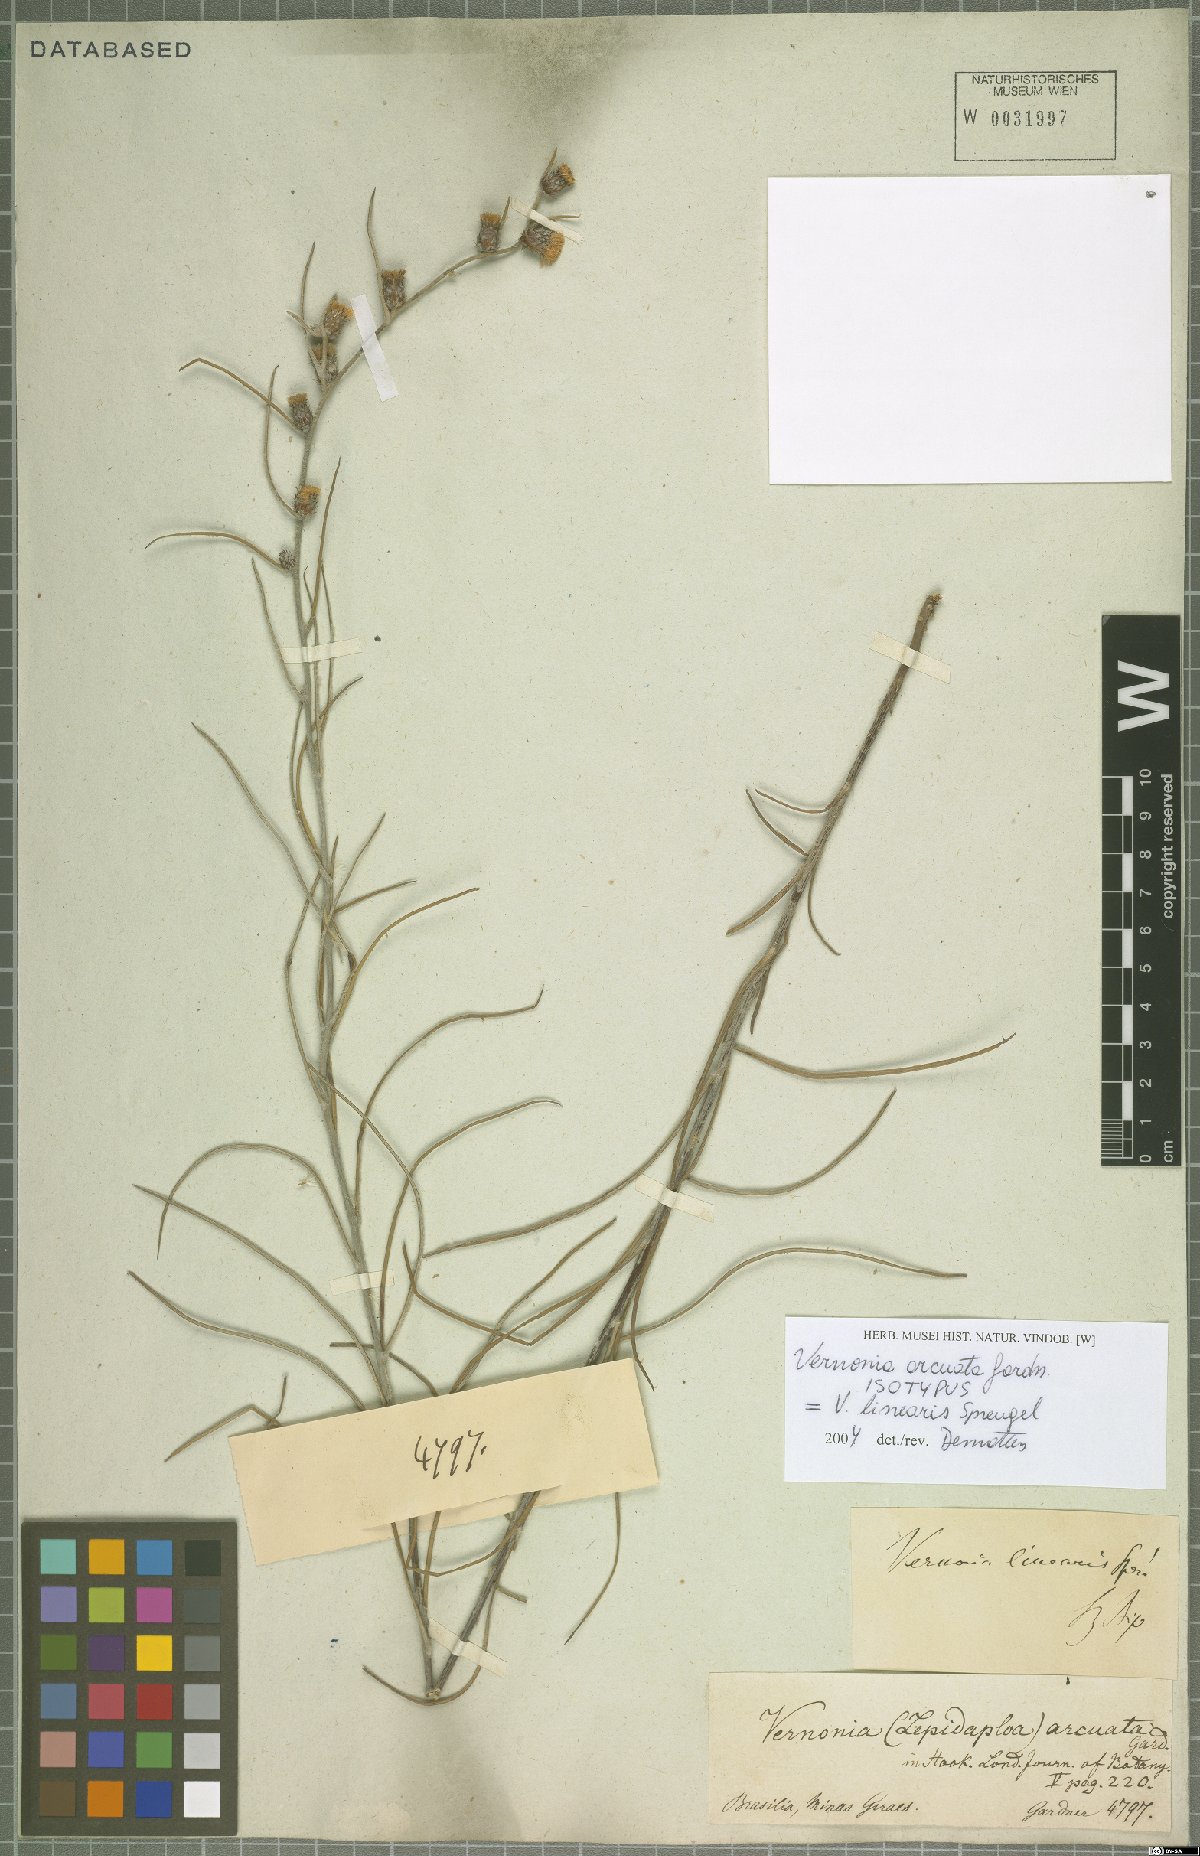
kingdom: Plantae
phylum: Tracheophyta
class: Magnoliopsida
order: Asterales
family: Asteraceae
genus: Lessingianthus
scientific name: Lessingianthus linearis
